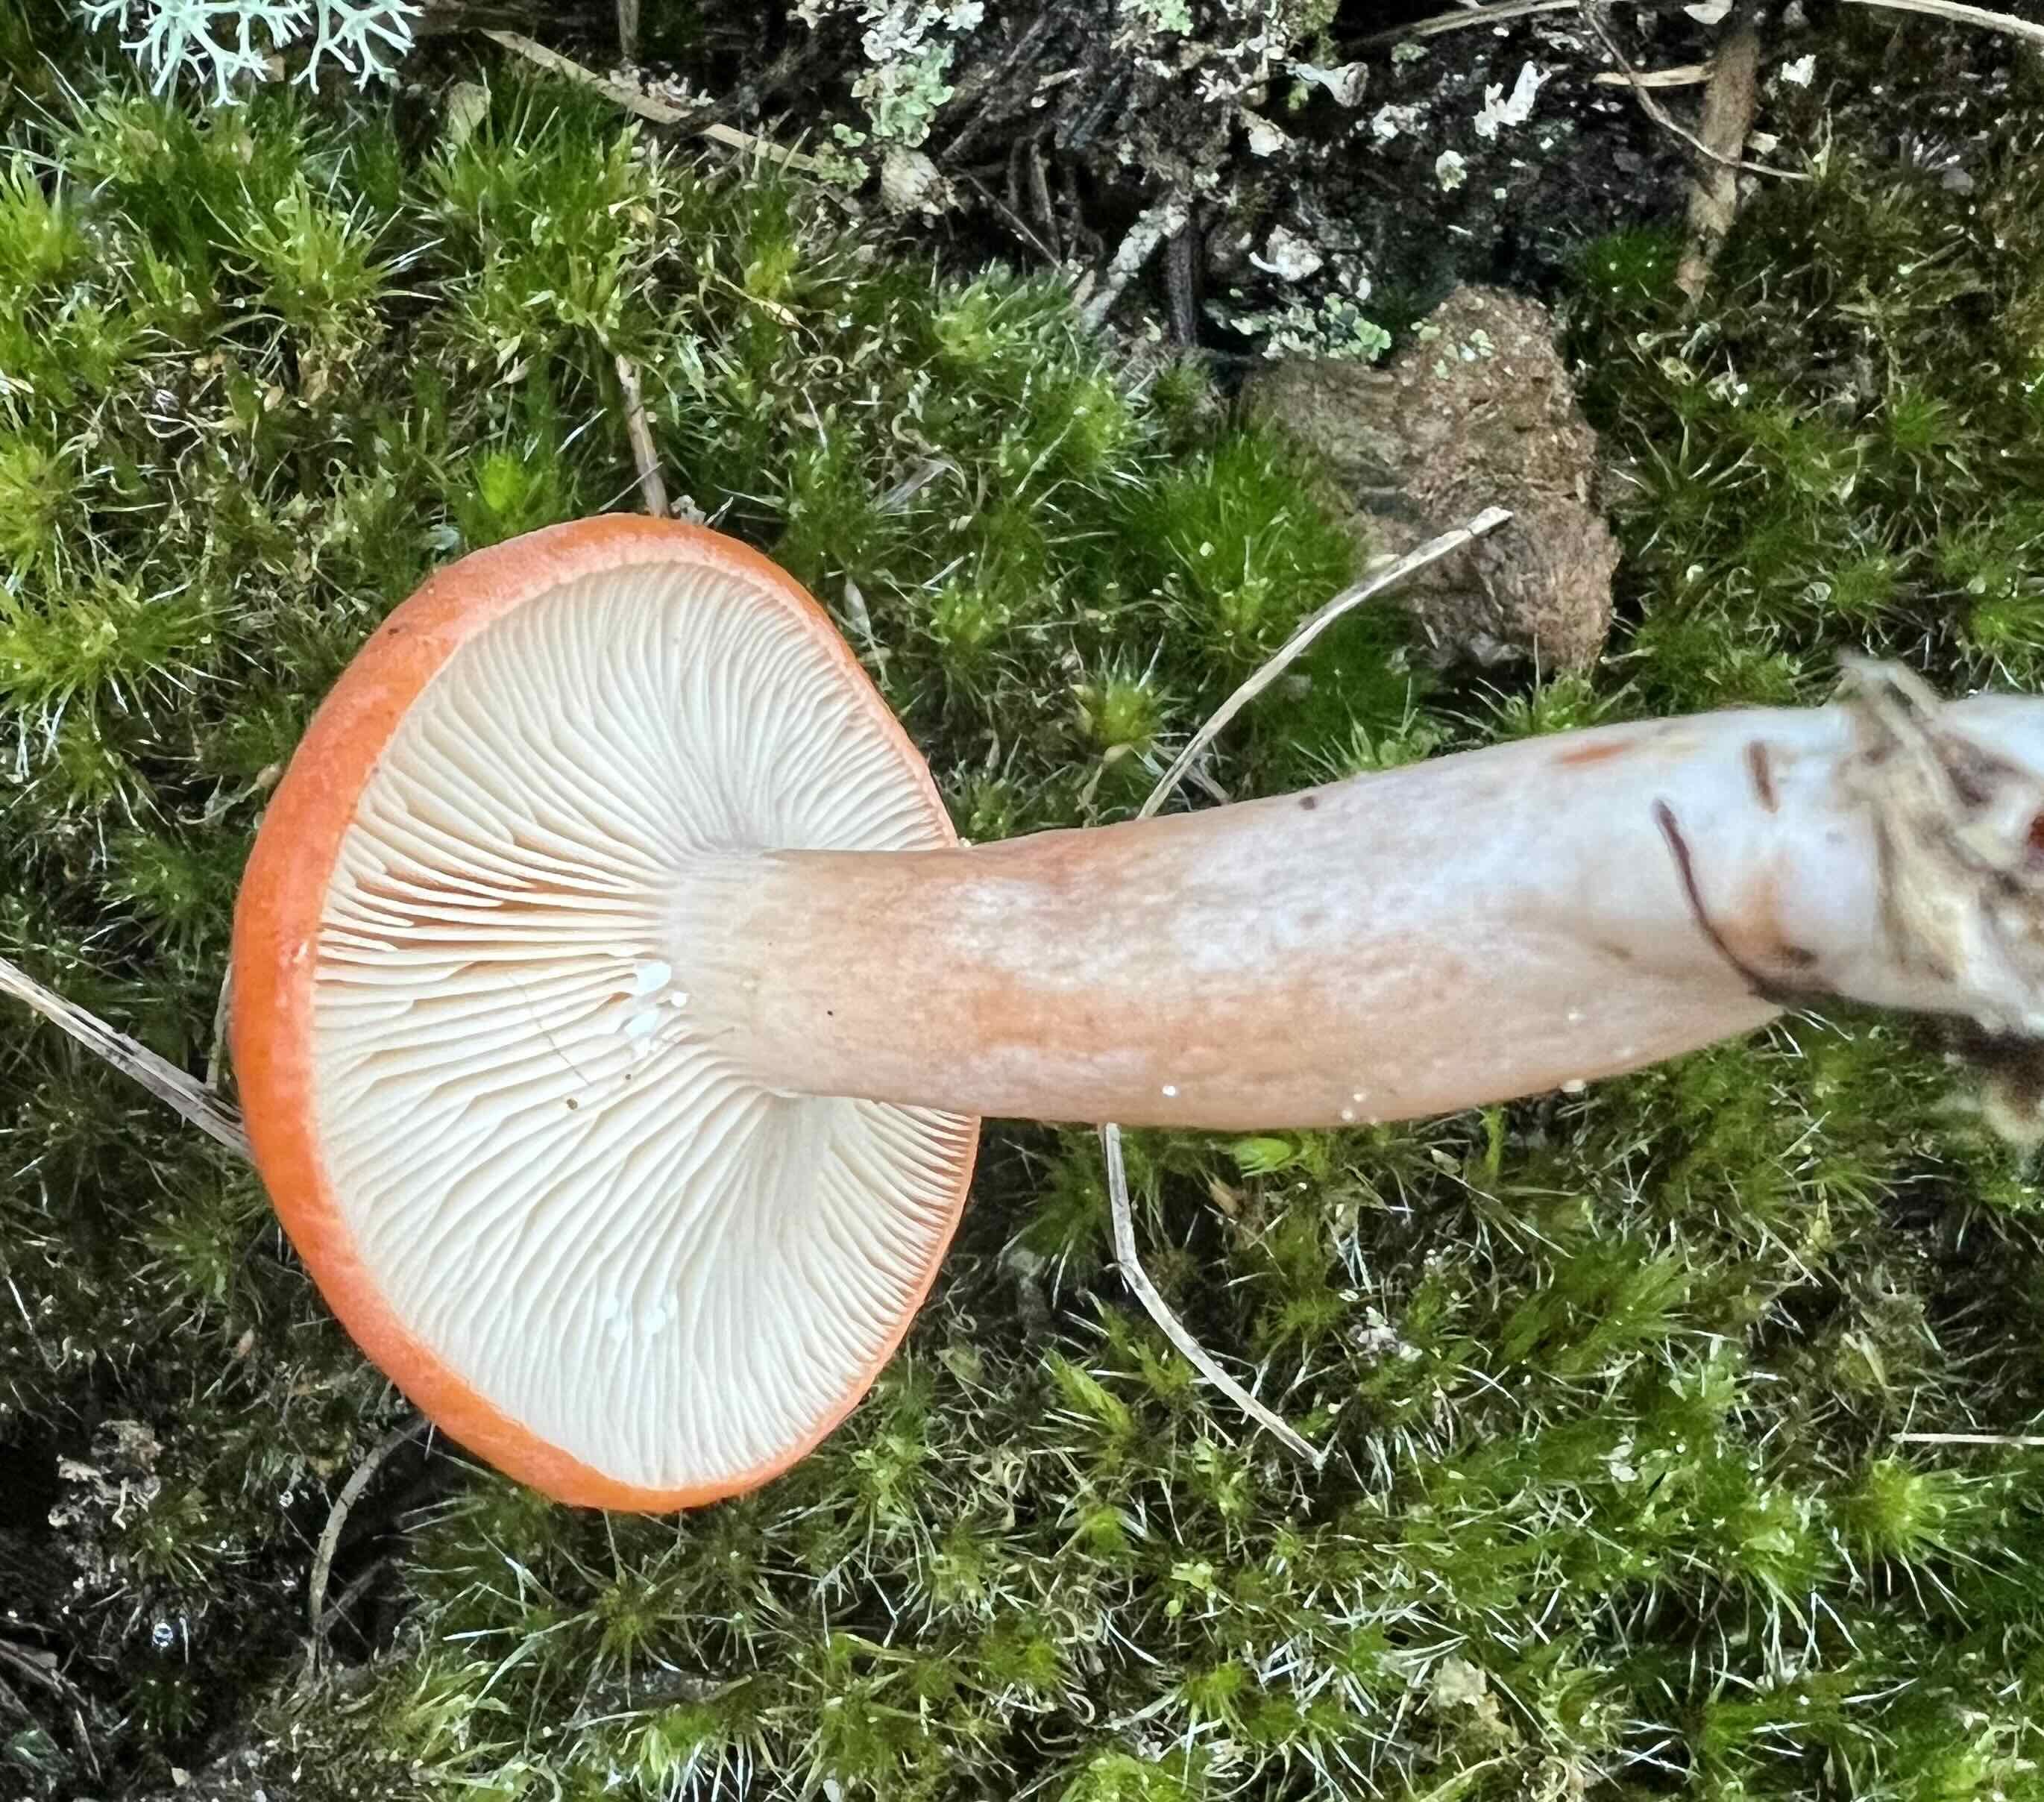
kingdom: Fungi
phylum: Basidiomycota
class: Agaricomycetes
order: Russulales
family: Russulaceae
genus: Lactarius
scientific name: Lactarius rufus
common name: rødbrun mælkehat
